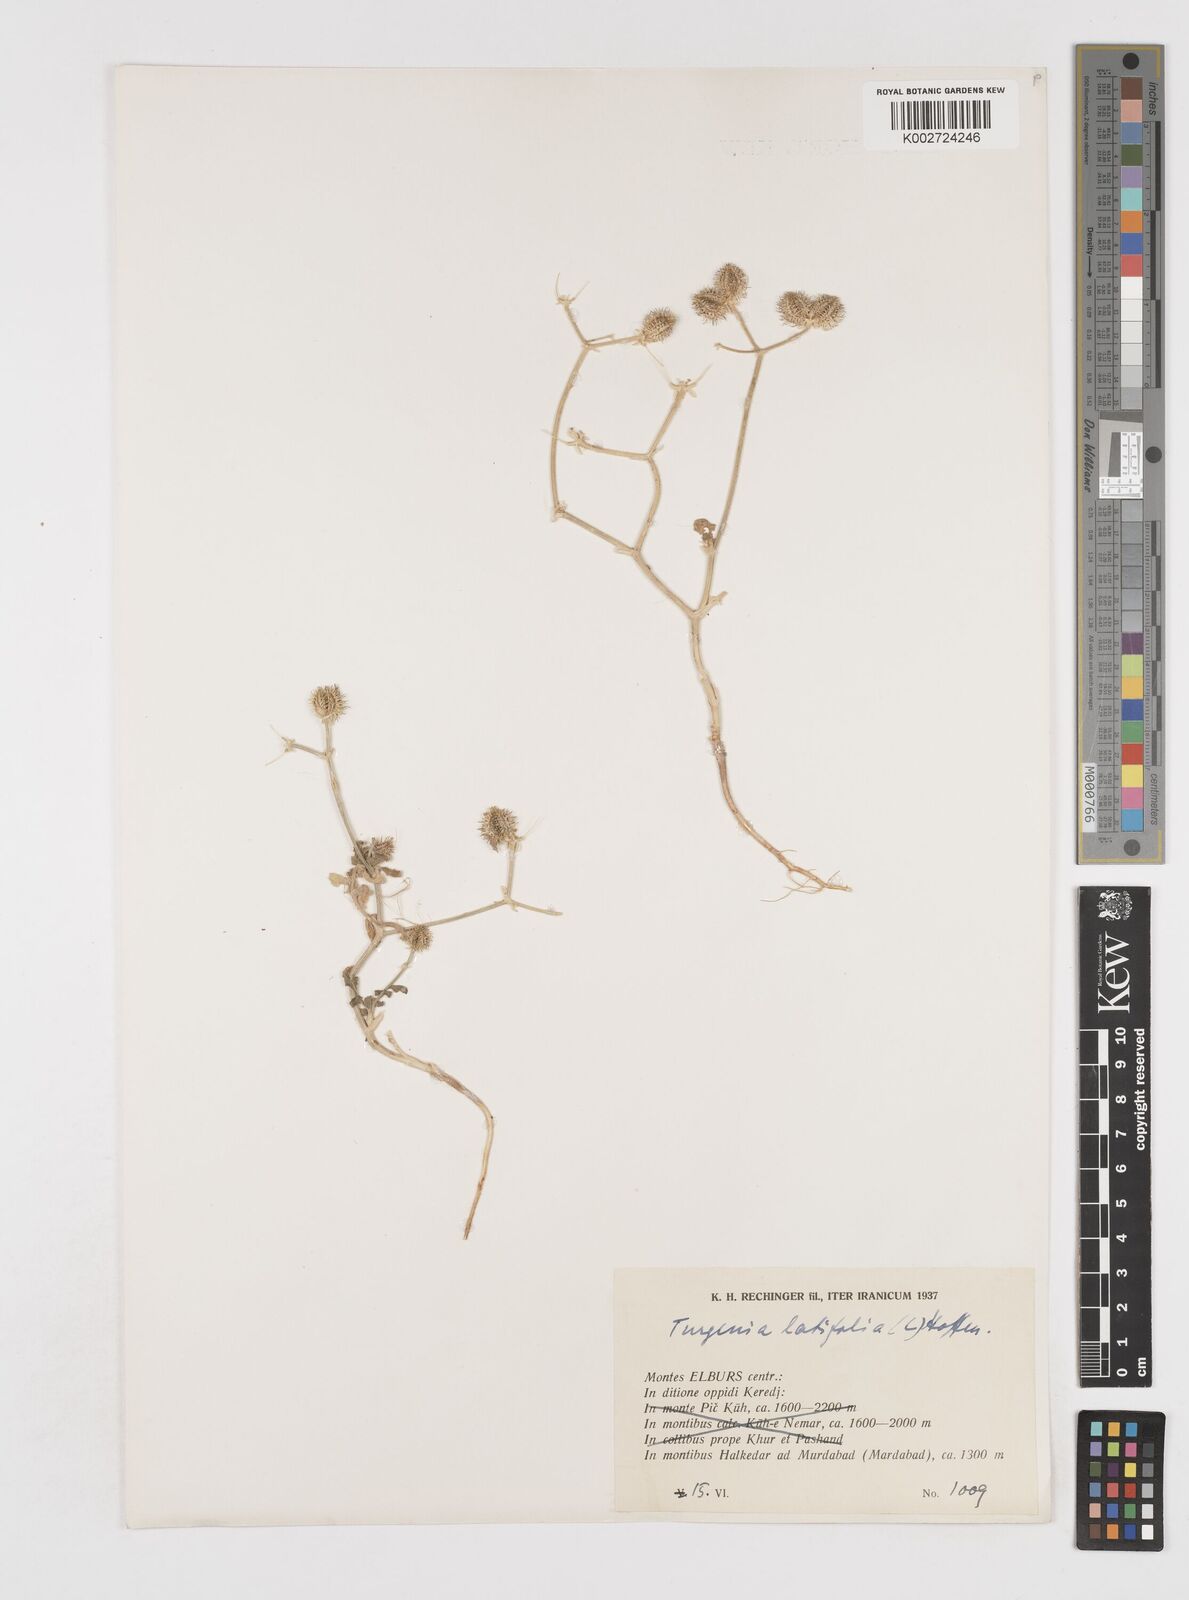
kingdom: Plantae
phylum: Tracheophyta
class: Magnoliopsida
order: Apiales
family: Apiaceae
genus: Turgenia
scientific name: Turgenia latifolia
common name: Greater bur-parsley
